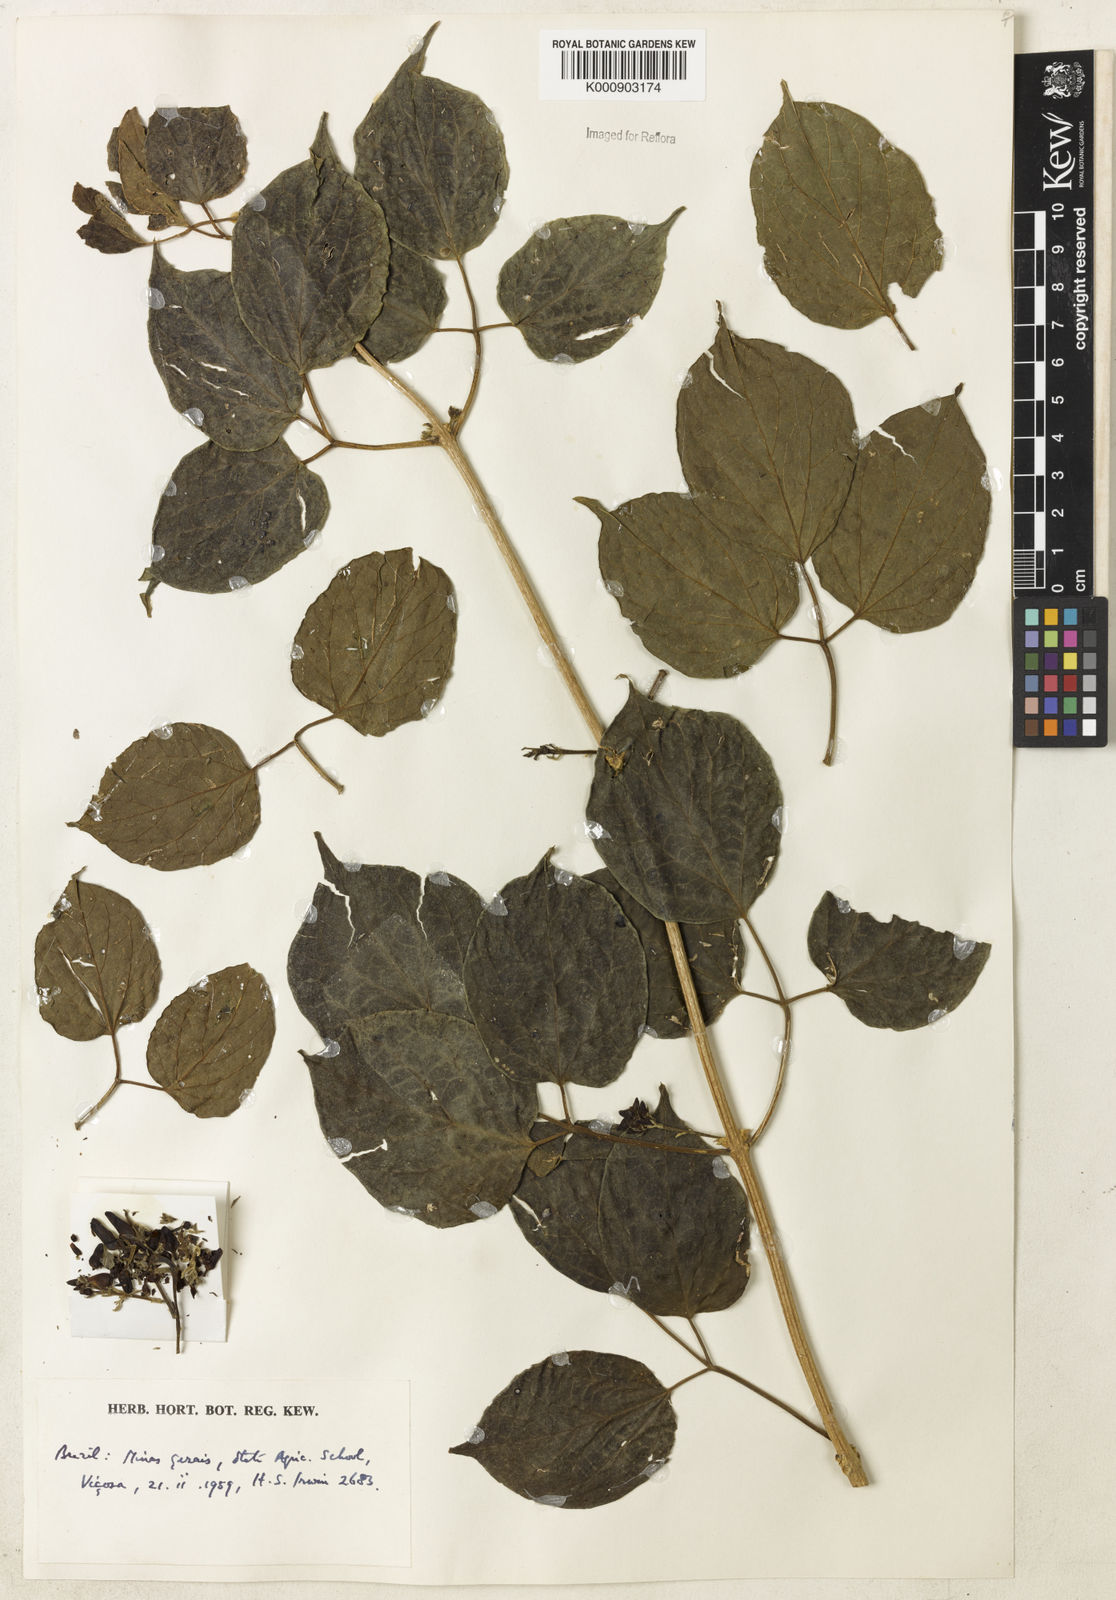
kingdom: Plantae
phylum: Tracheophyta
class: Magnoliopsida
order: Lamiales
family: Bignoniaceae
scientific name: Bignoniaceae
